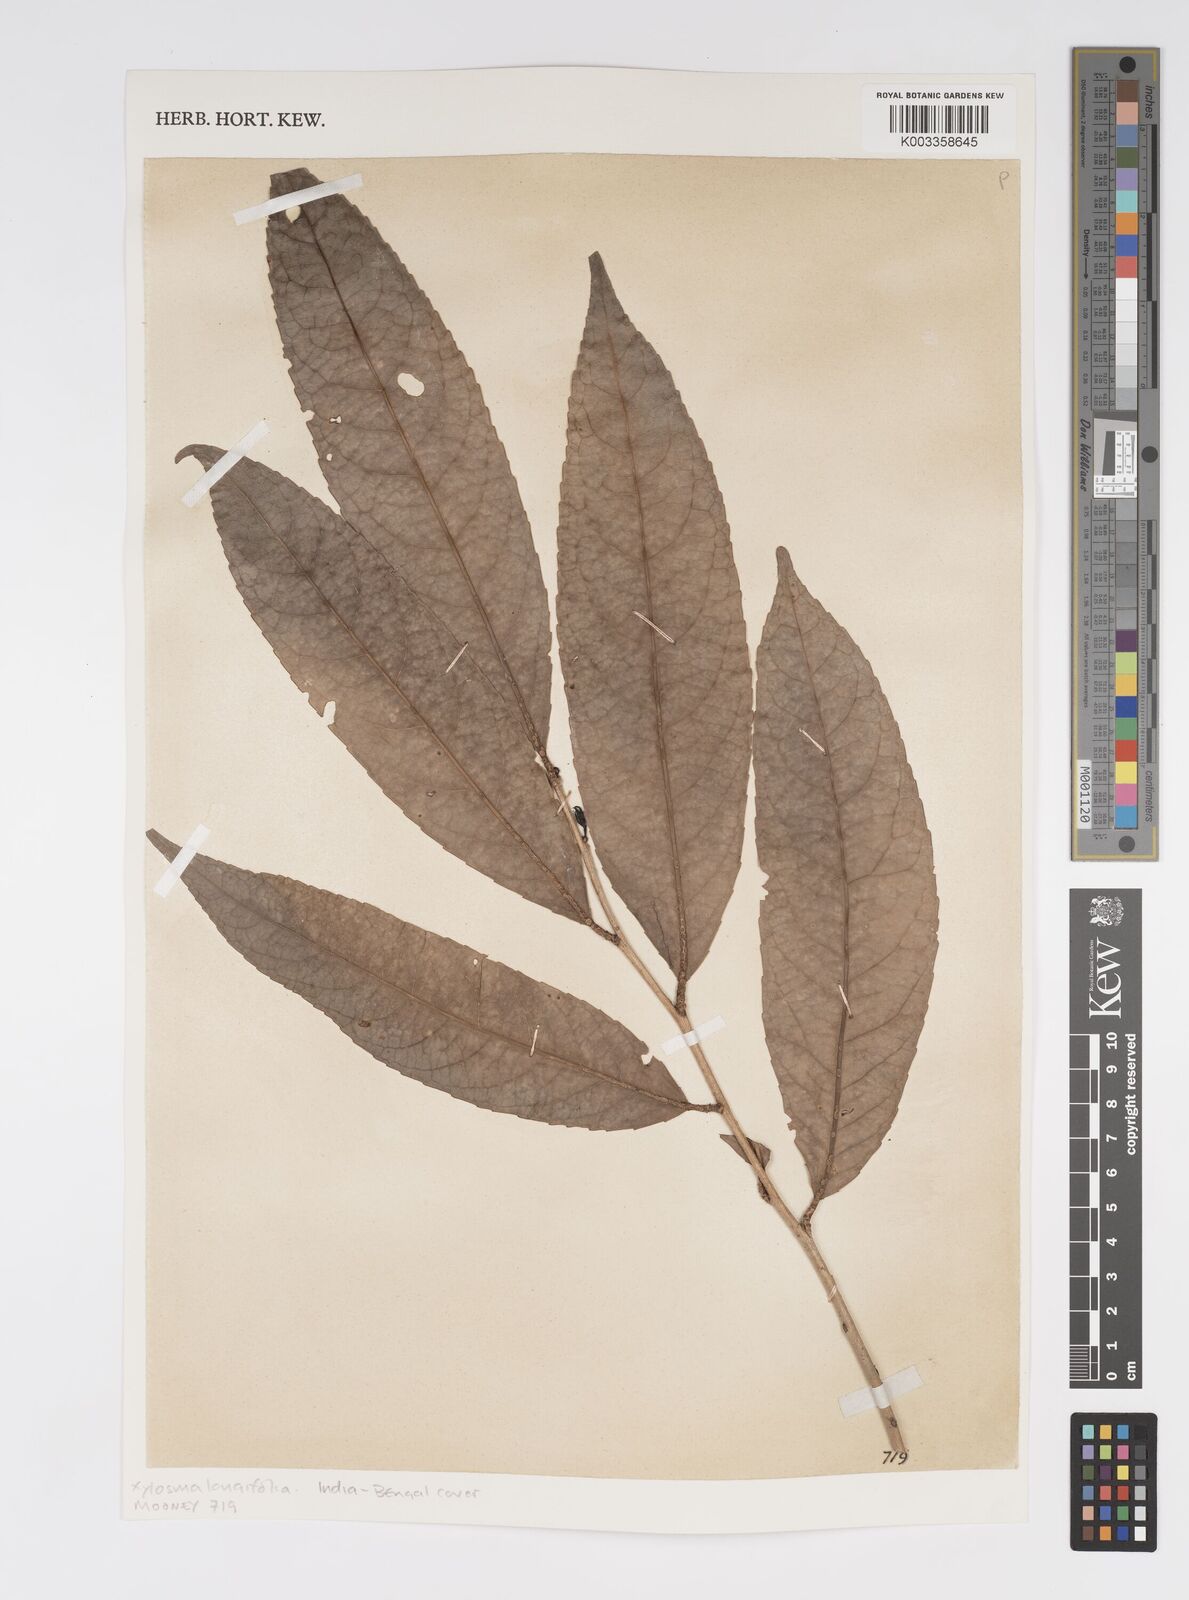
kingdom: Plantae
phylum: Tracheophyta
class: Magnoliopsida
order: Malpighiales
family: Salicaceae
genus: Xylosma
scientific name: Xylosma longifolia
